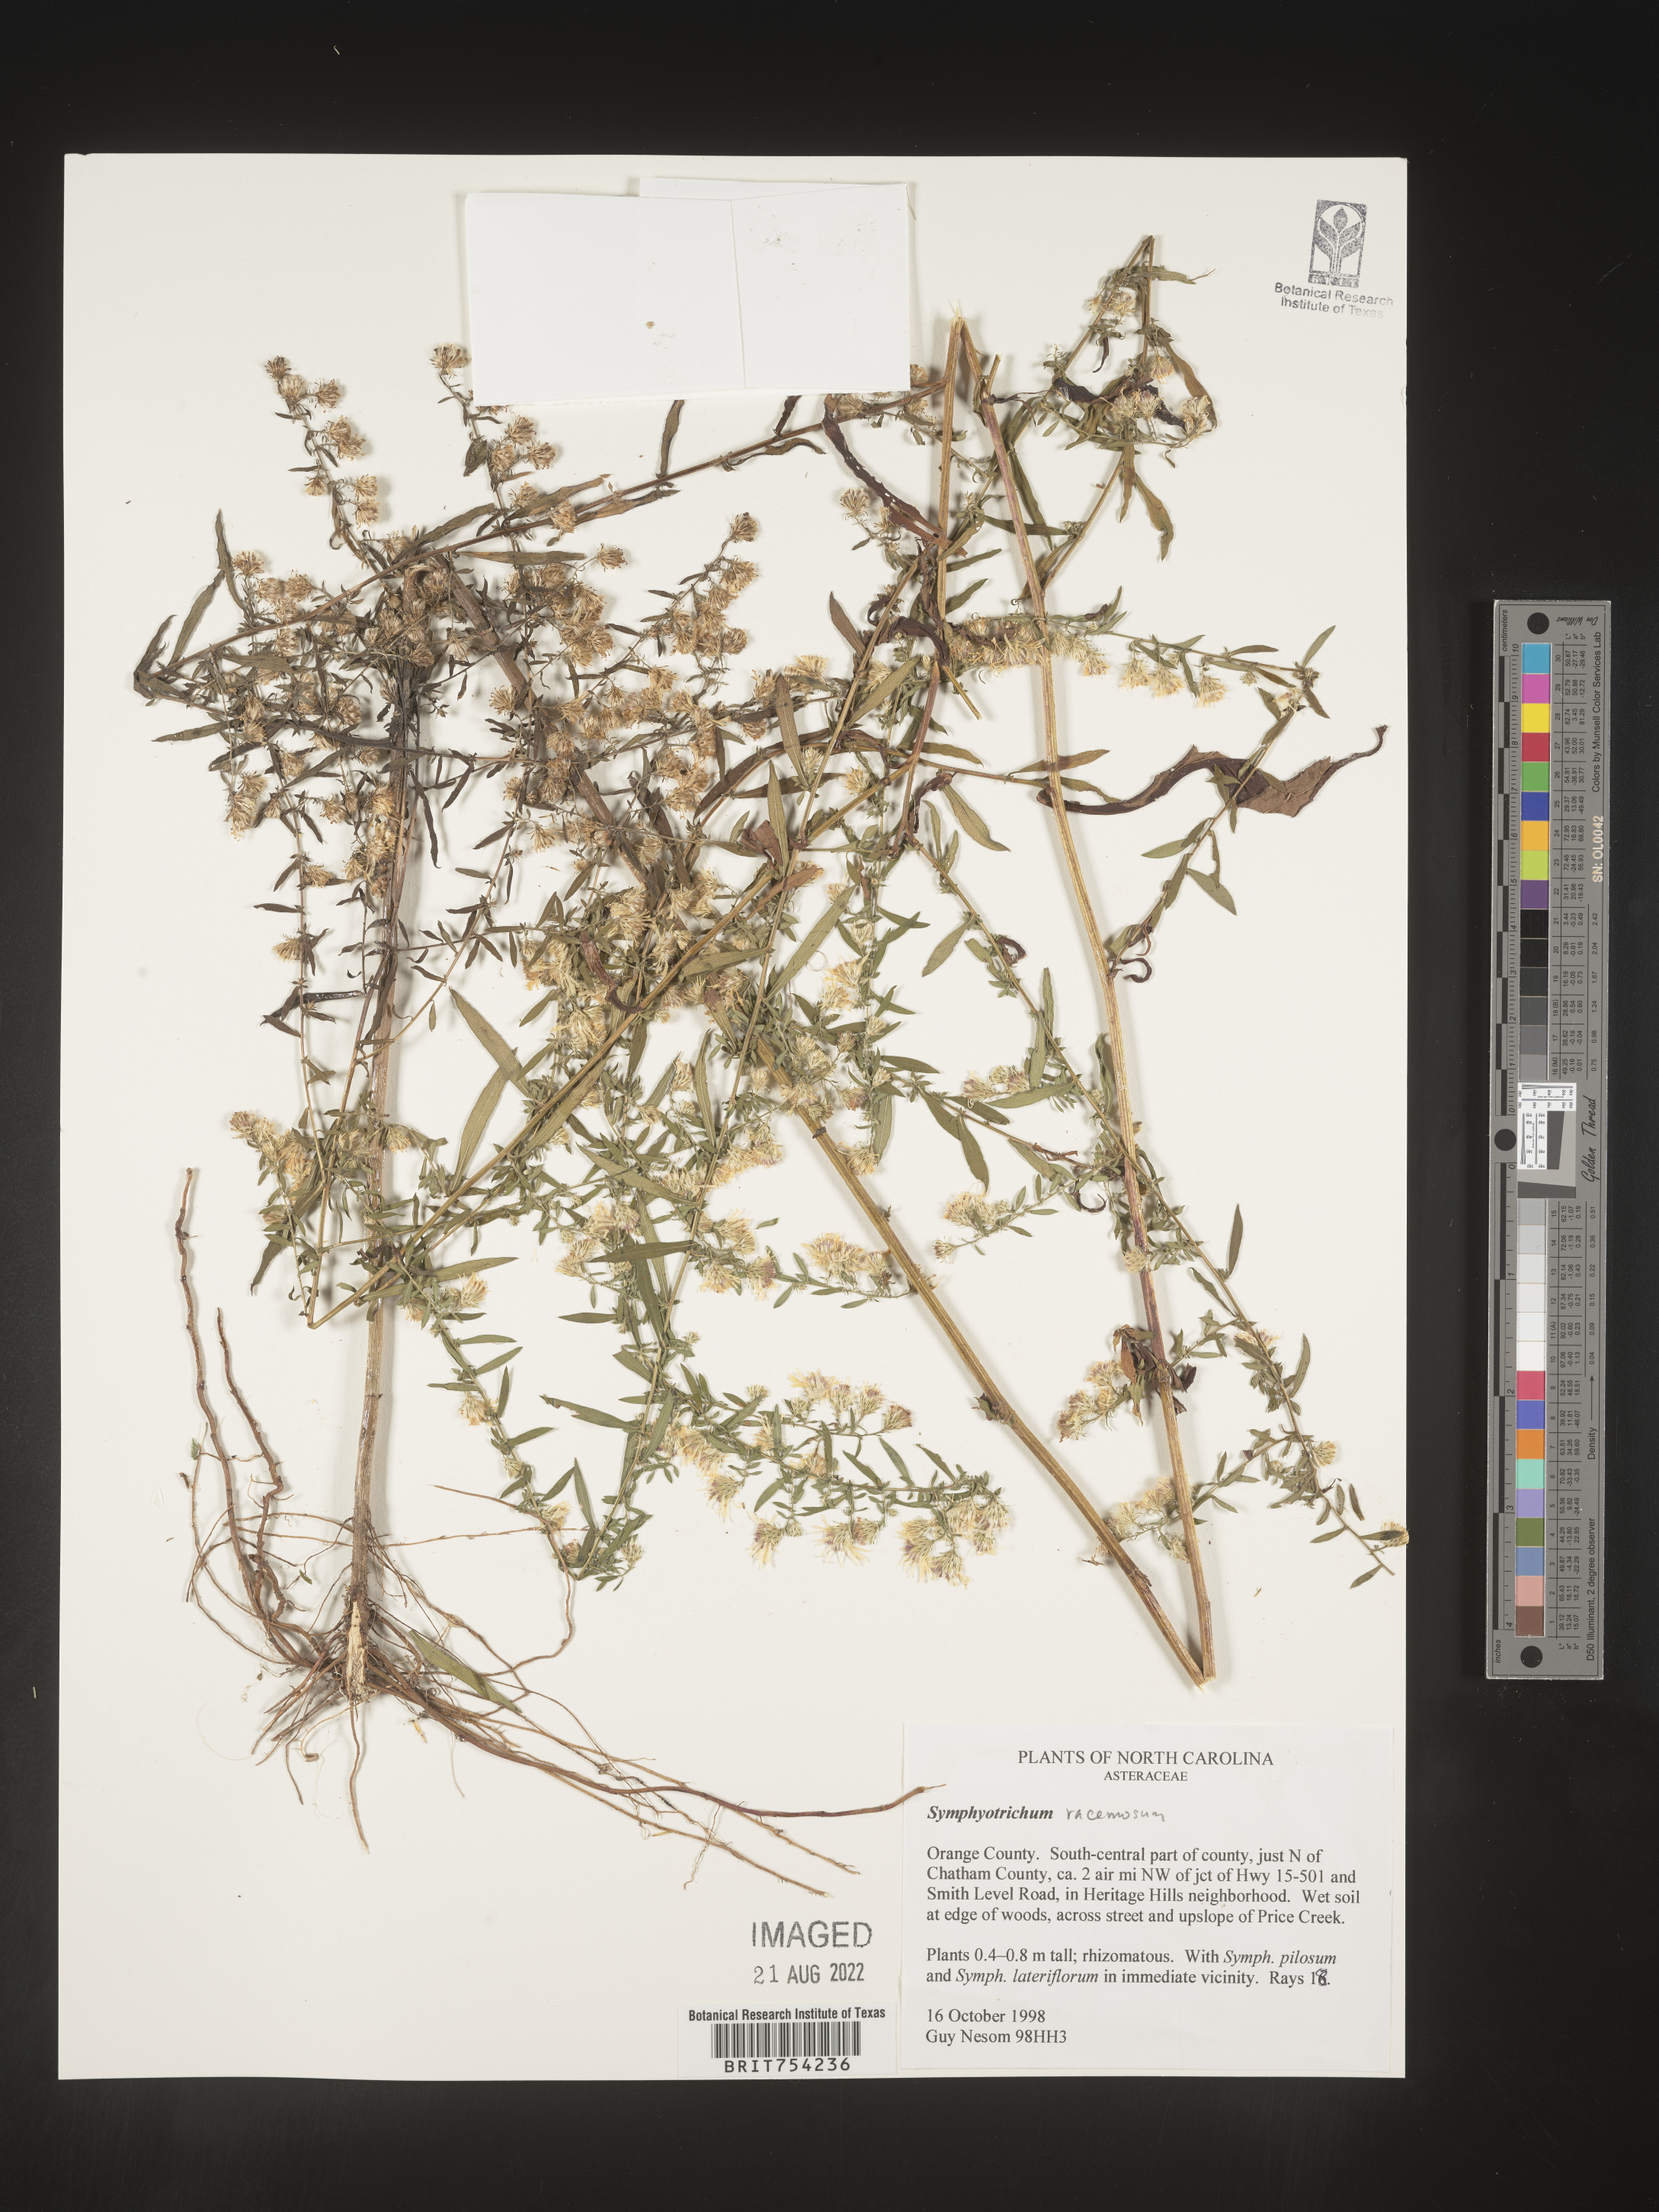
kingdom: Plantae
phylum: Tracheophyta
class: Magnoliopsida
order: Asterales
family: Asteraceae
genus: Symphyotrichum
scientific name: Symphyotrichum racemosum
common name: Small white aster
